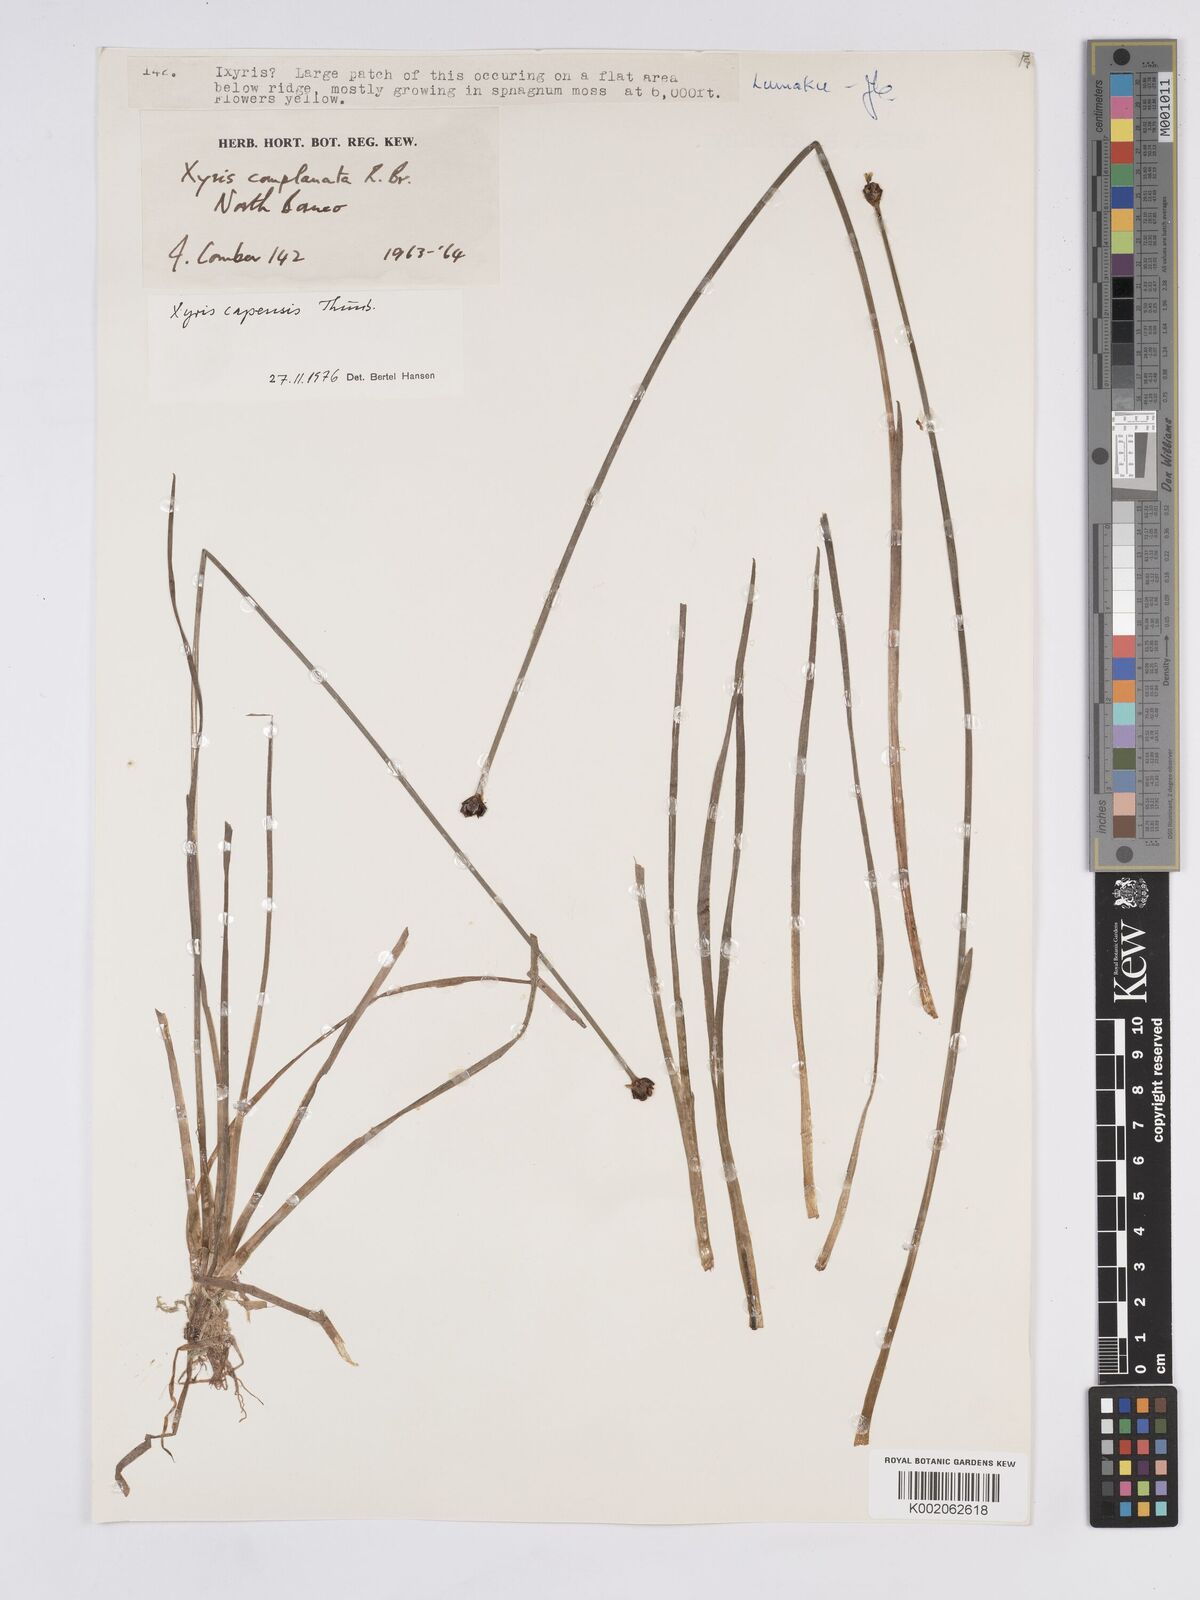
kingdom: Plantae
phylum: Tracheophyta
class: Liliopsida
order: Poales
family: Xyridaceae
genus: Xyris
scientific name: Xyris capensis
